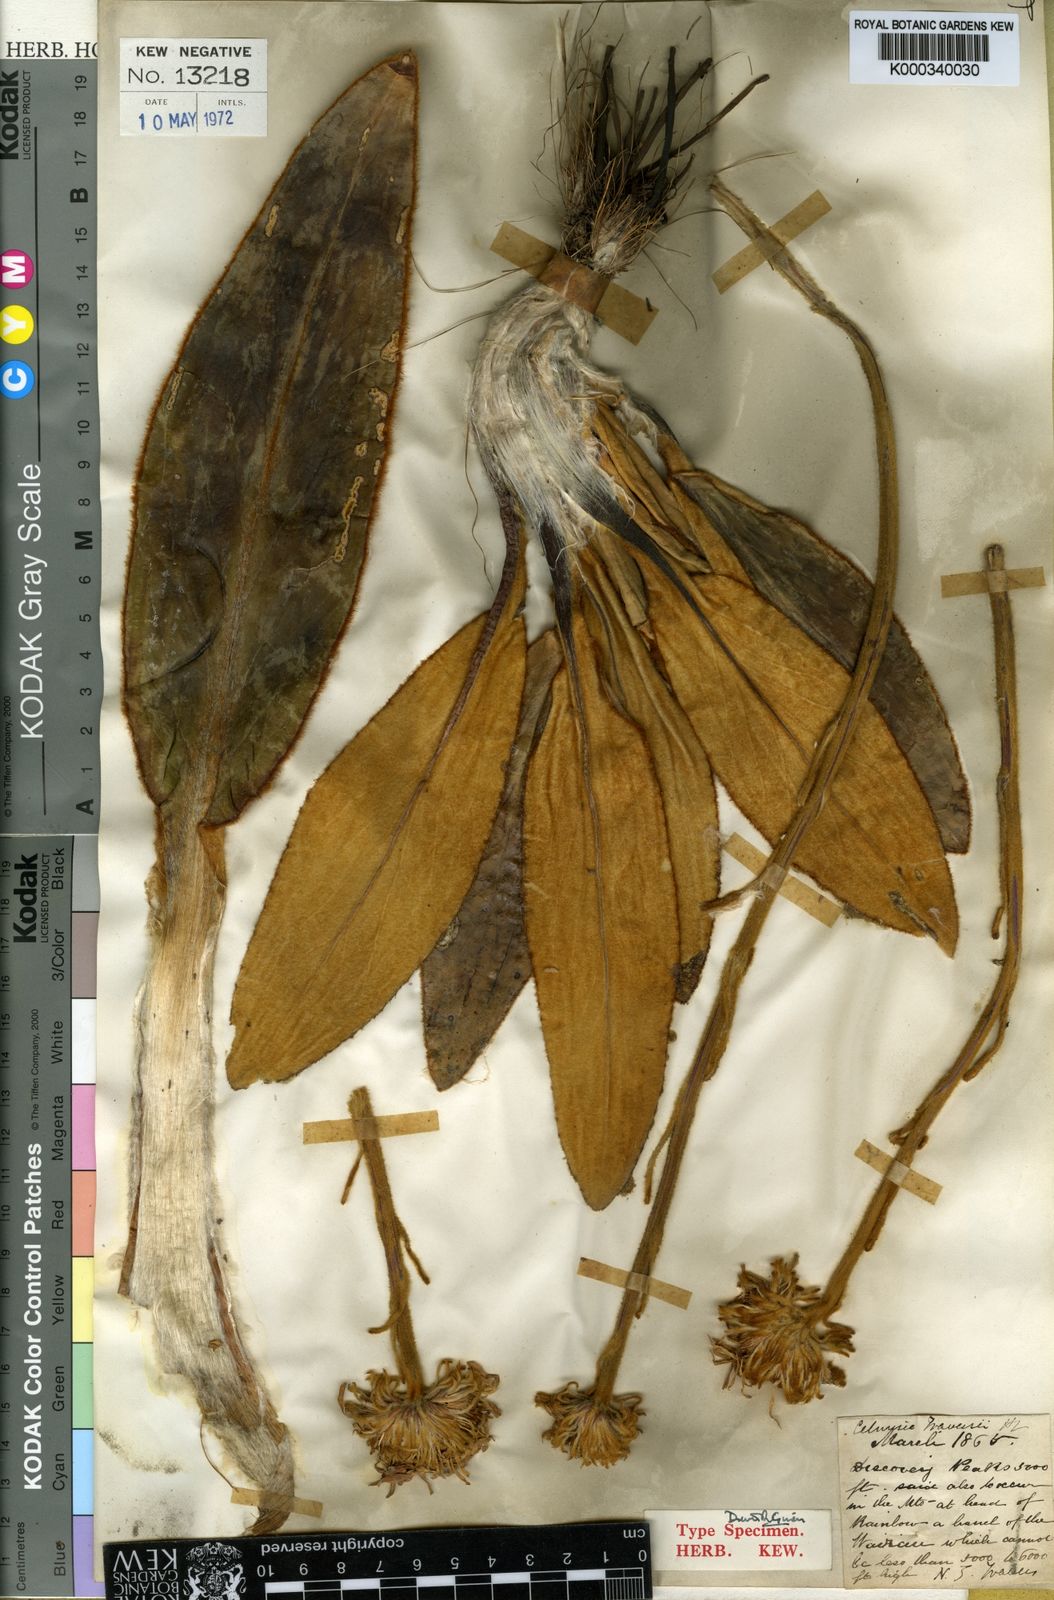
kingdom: Plantae
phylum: Tracheophyta
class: Magnoliopsida
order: Asterales
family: Asteraceae
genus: Celmisia
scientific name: Celmisia traversii
